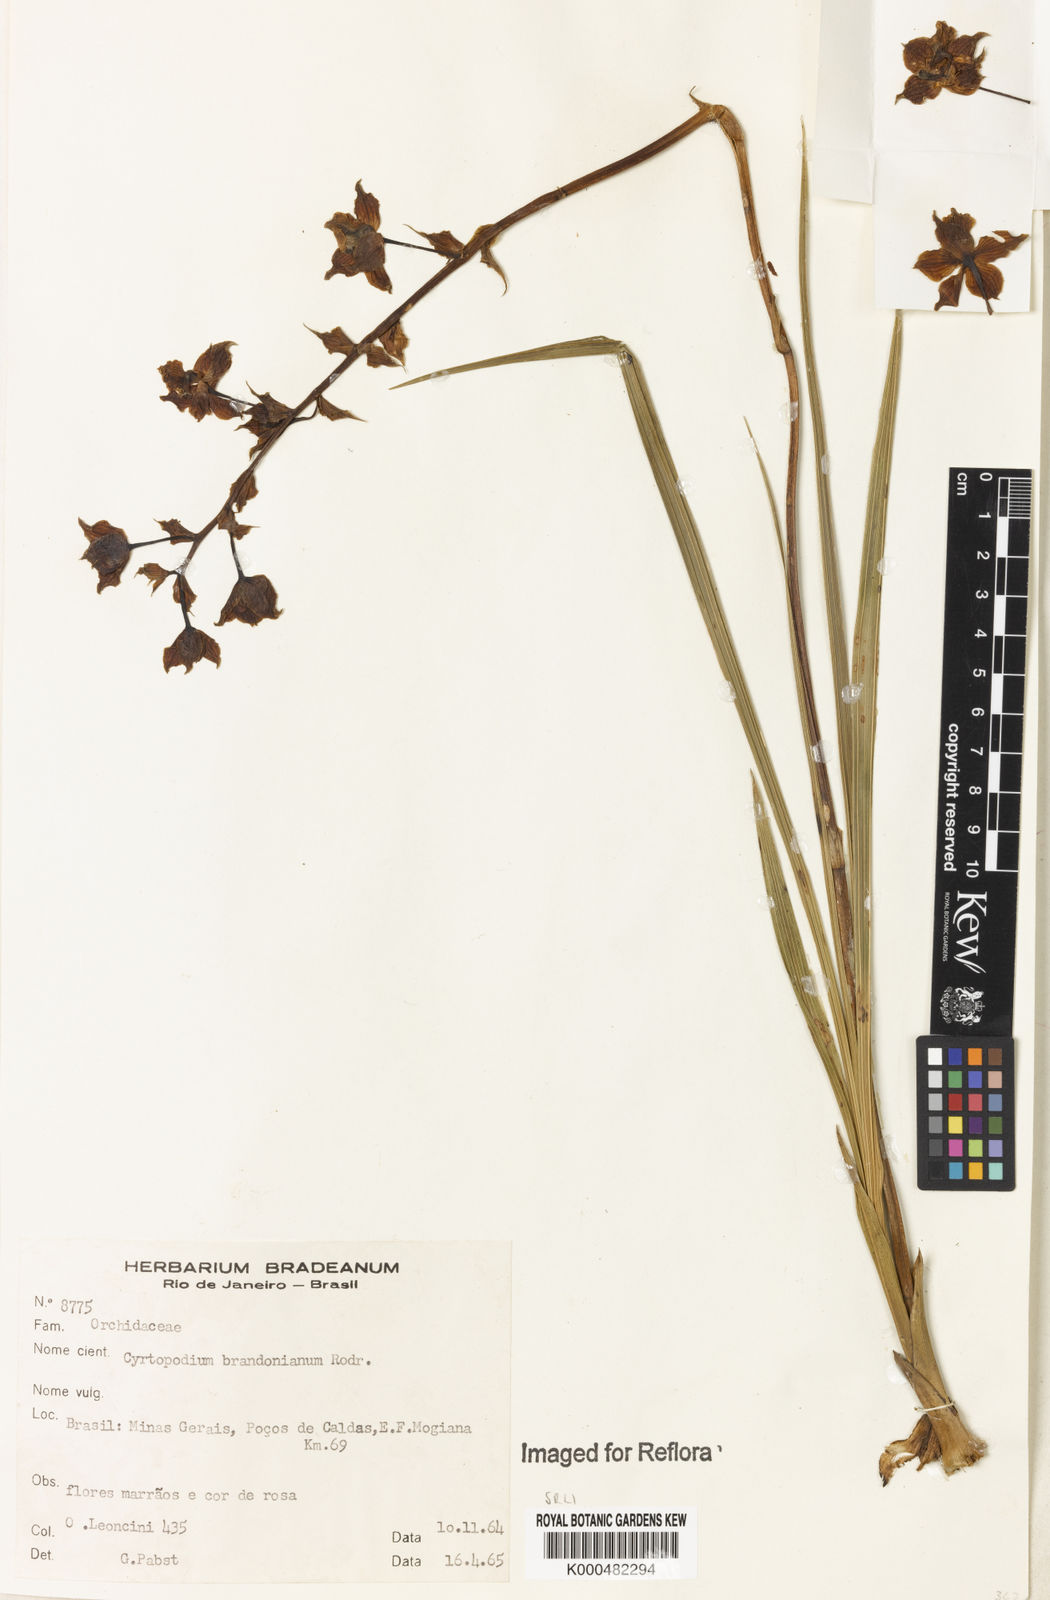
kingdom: Plantae
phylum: Tracheophyta
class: Liliopsida
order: Asparagales
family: Orchidaceae
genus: Cyrtopodium
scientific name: Cyrtopodium brandonianum
